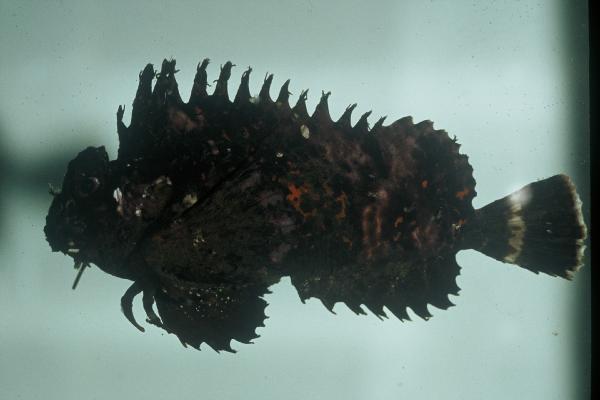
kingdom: Animalia
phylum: Chordata
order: Scorpaeniformes
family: Synanceiidae
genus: Choridactylus
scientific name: Choridactylus natalensis
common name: Threestick stingfish
